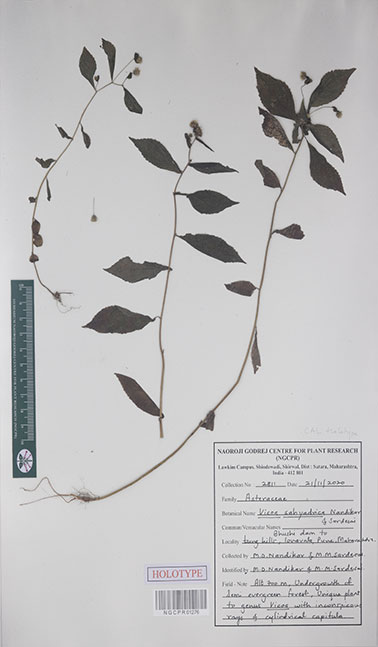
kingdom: Plantae
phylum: Tracheophyta
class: Magnoliopsida
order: Asterales
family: Asteraceae
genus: Vicoa
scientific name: Vicoa sahyadrica
